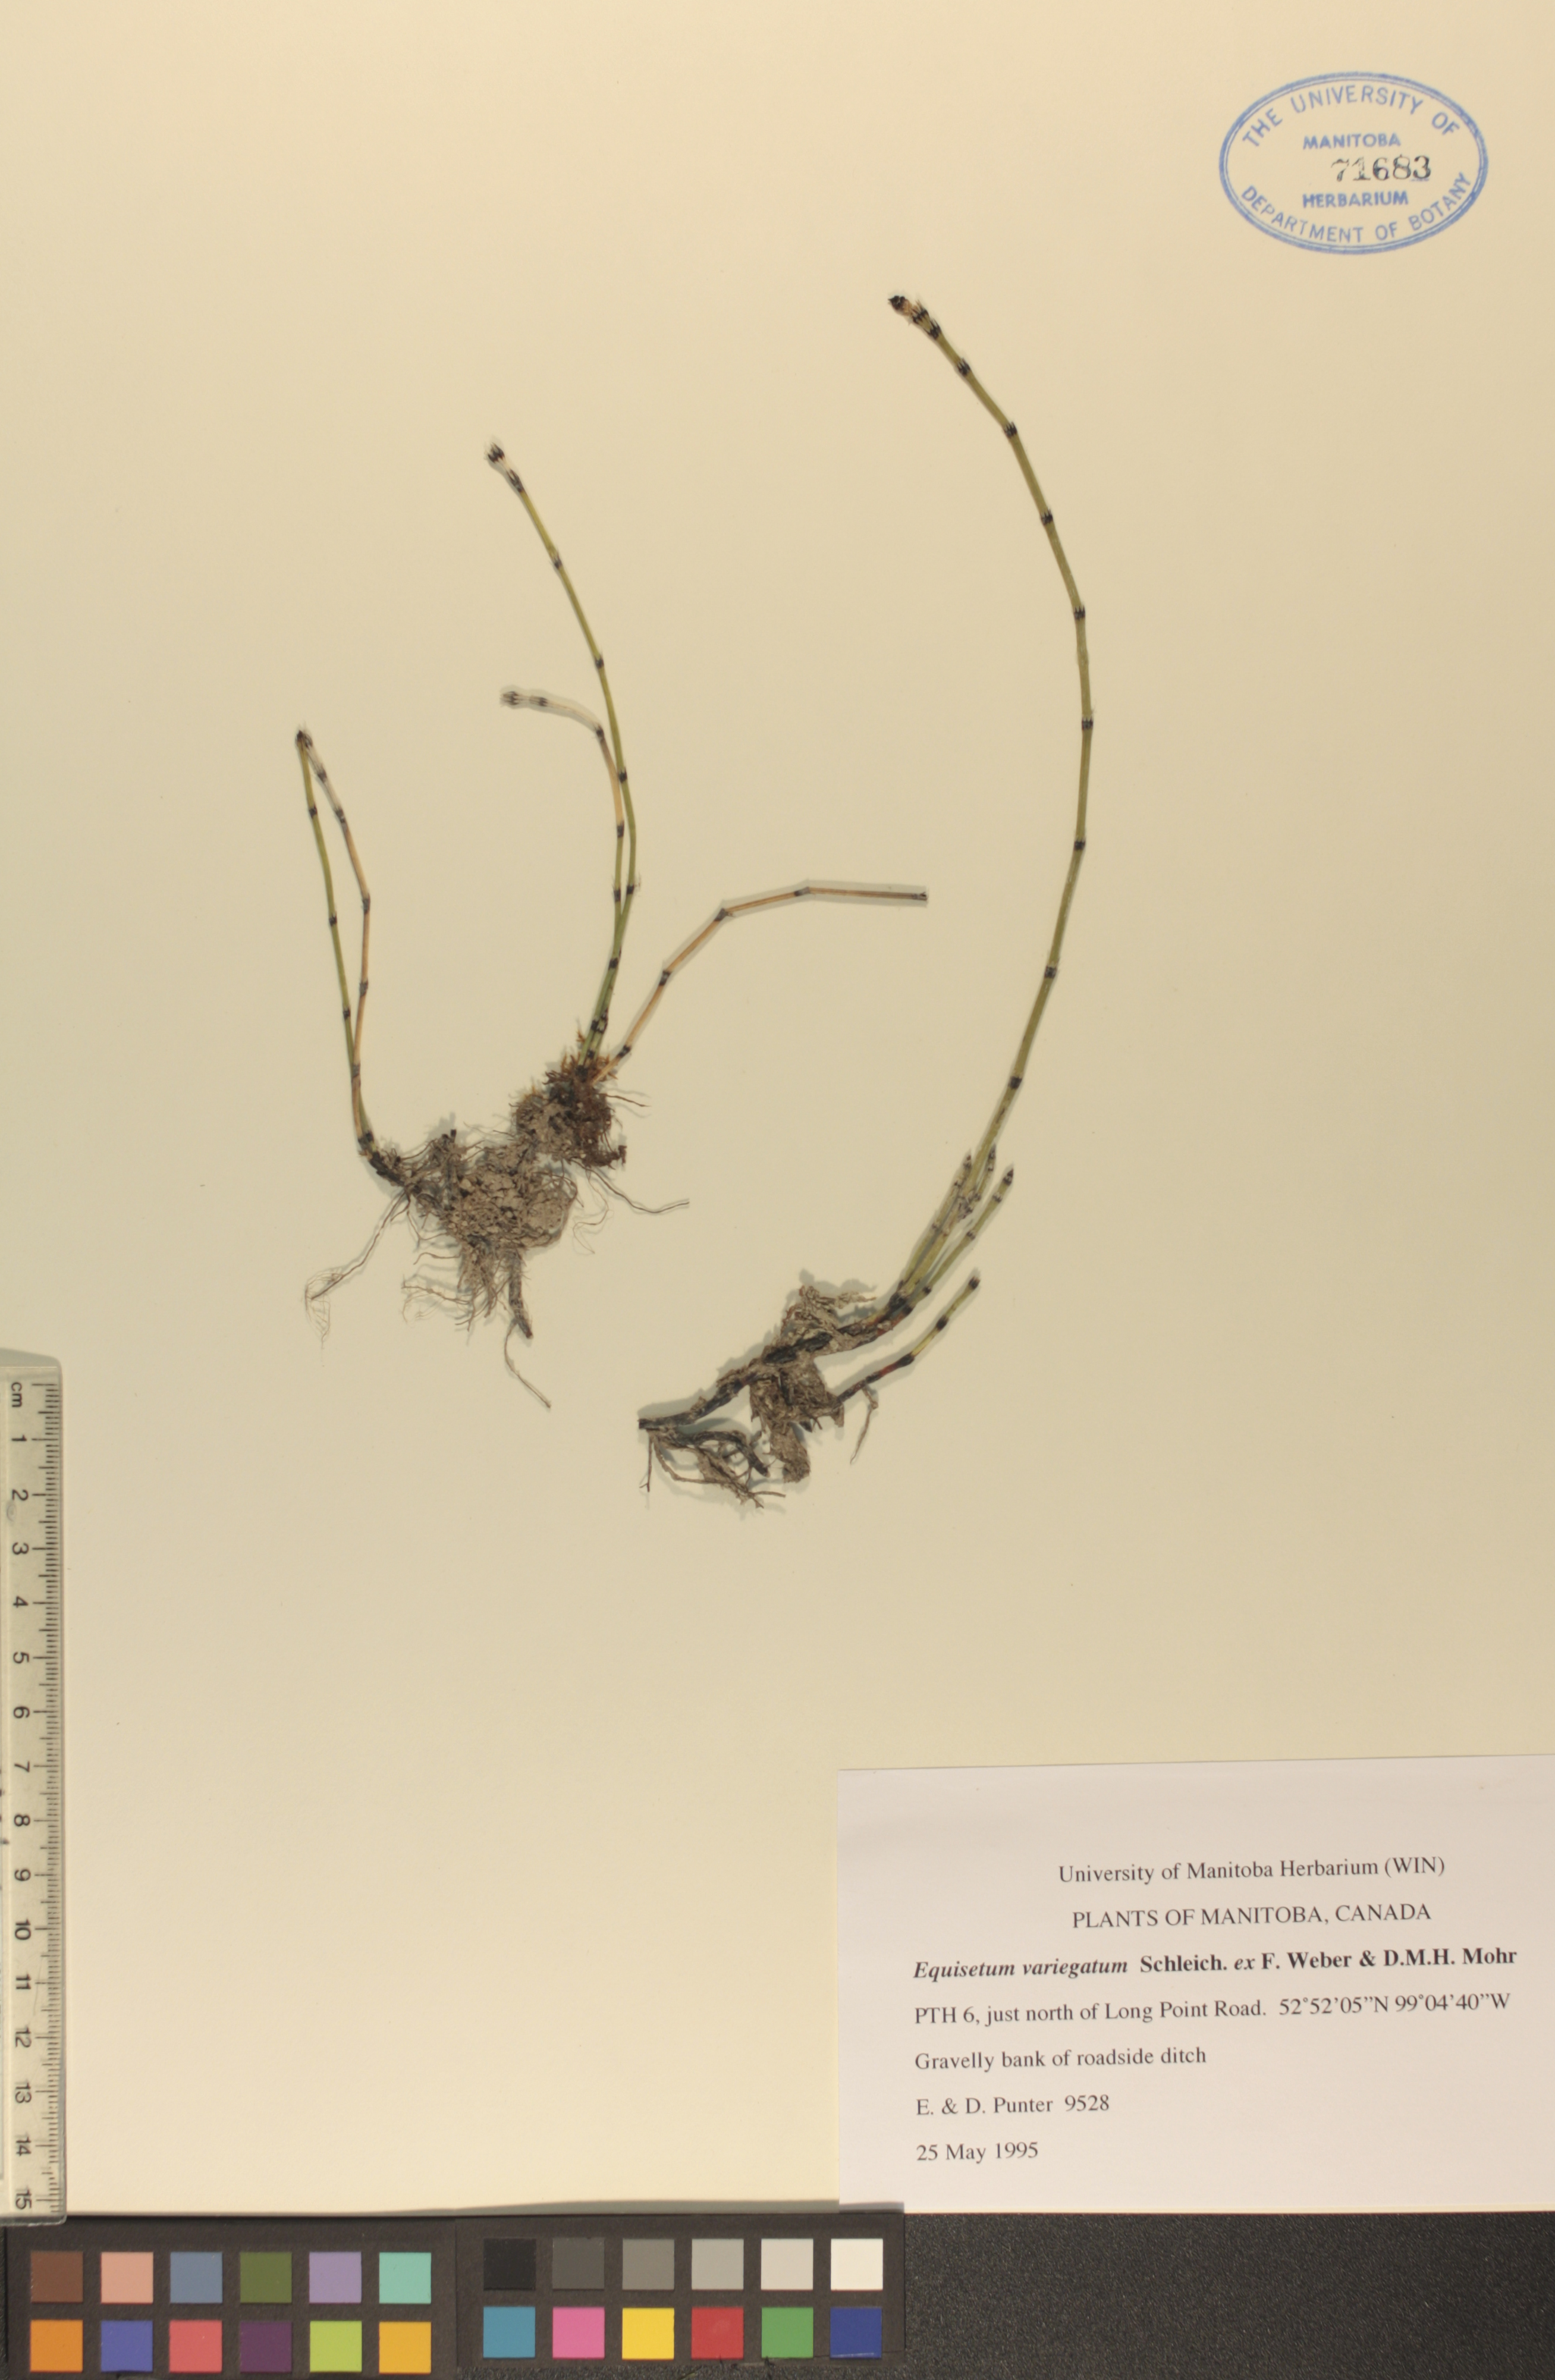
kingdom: Plantae
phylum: Tracheophyta
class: Polypodiopsida
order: Equisetales
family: Equisetaceae
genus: Equisetum
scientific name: Equisetum variegatum
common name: Variegated horsetail
